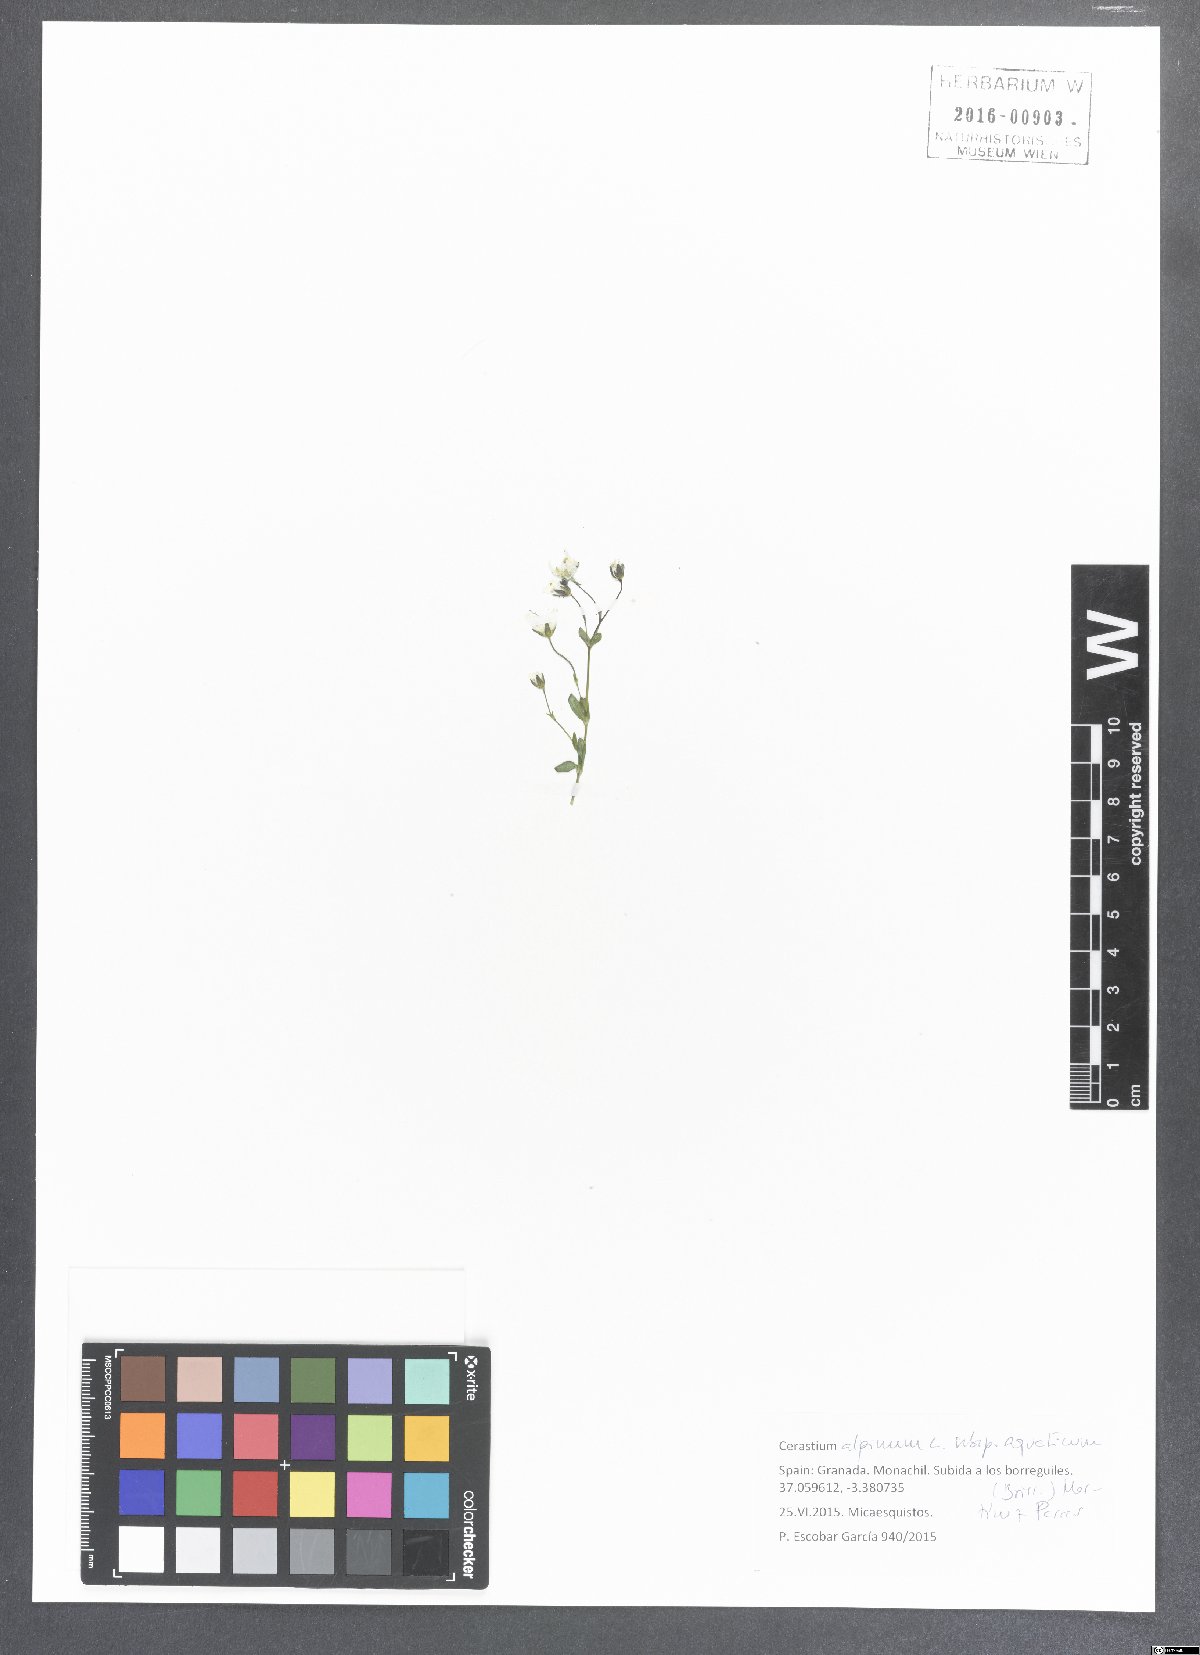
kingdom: Plantae
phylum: Tracheophyta
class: Magnoliopsida
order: Caryophyllales
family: Caryophyllaceae
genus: Cerastium
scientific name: Cerastium alpinum
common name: Alpine mouse-ear
